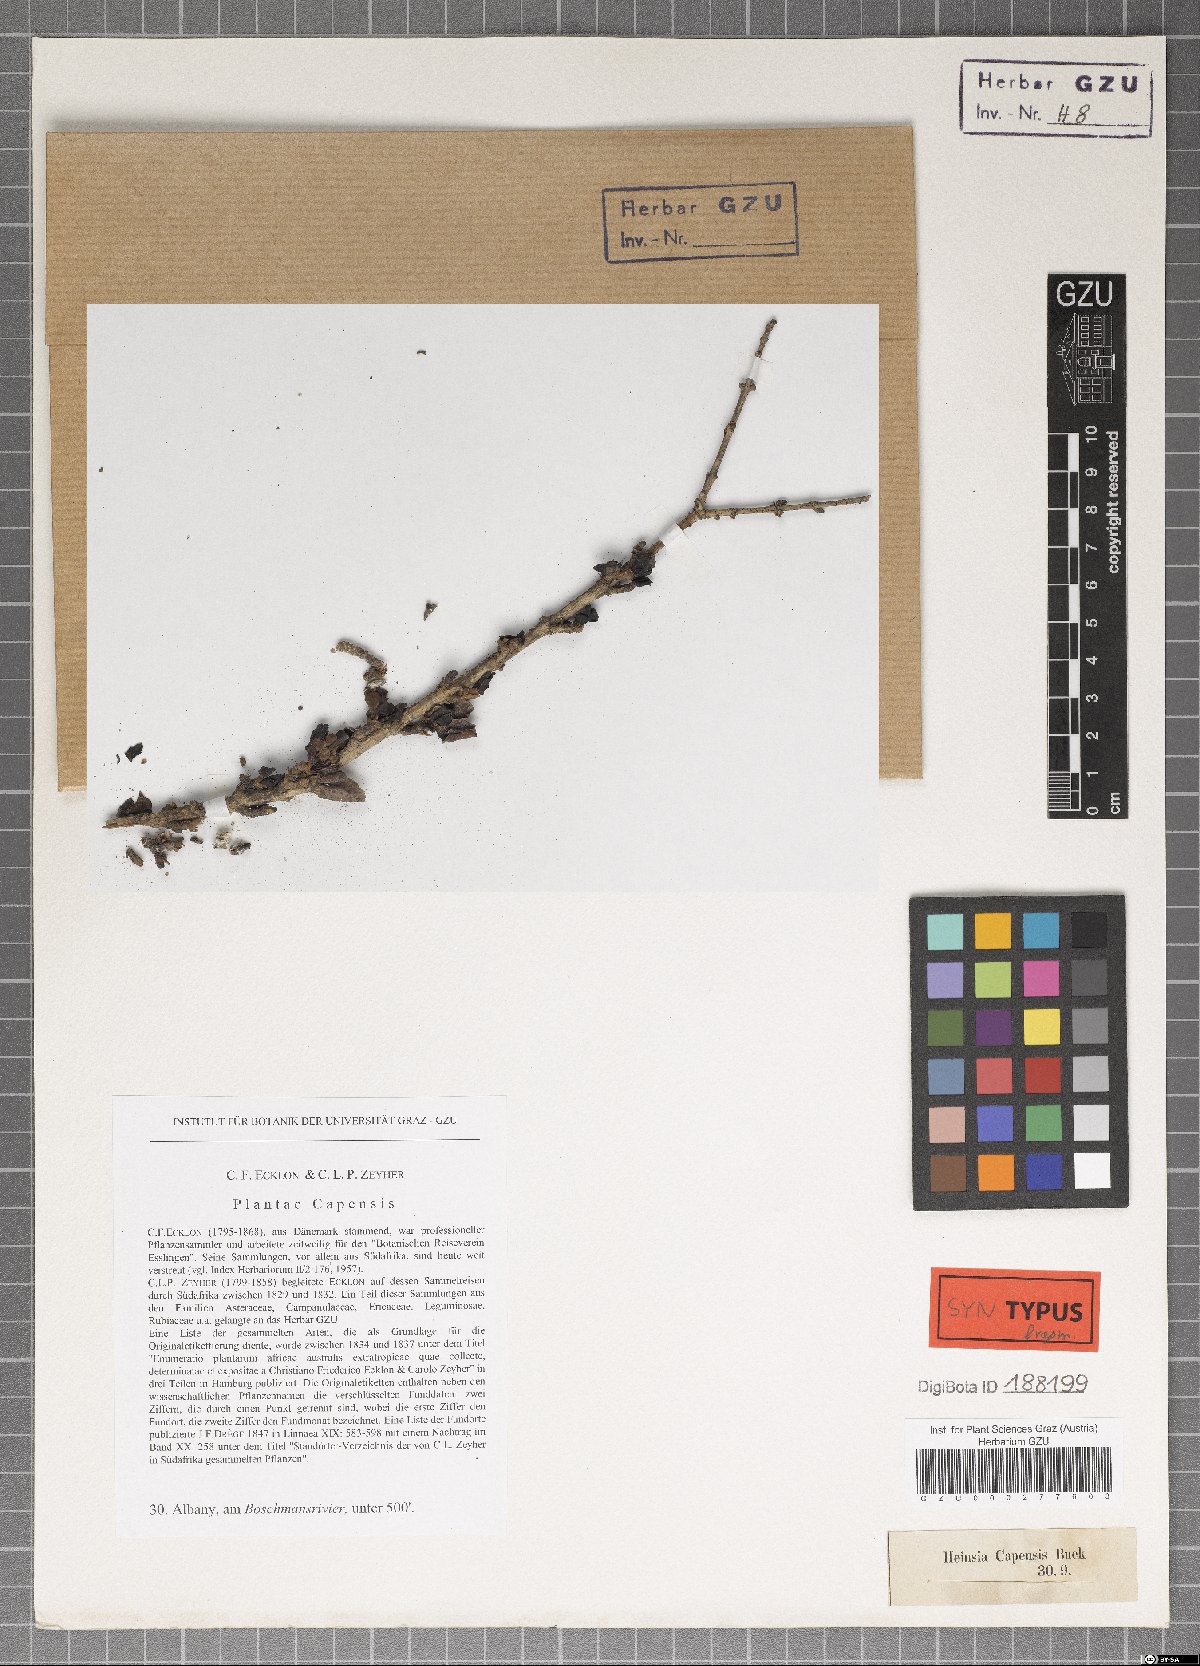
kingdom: Plantae
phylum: Tracheophyta
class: Magnoliopsida
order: Gentianales
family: Rubiaceae
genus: Coddia
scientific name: Coddia rudis
